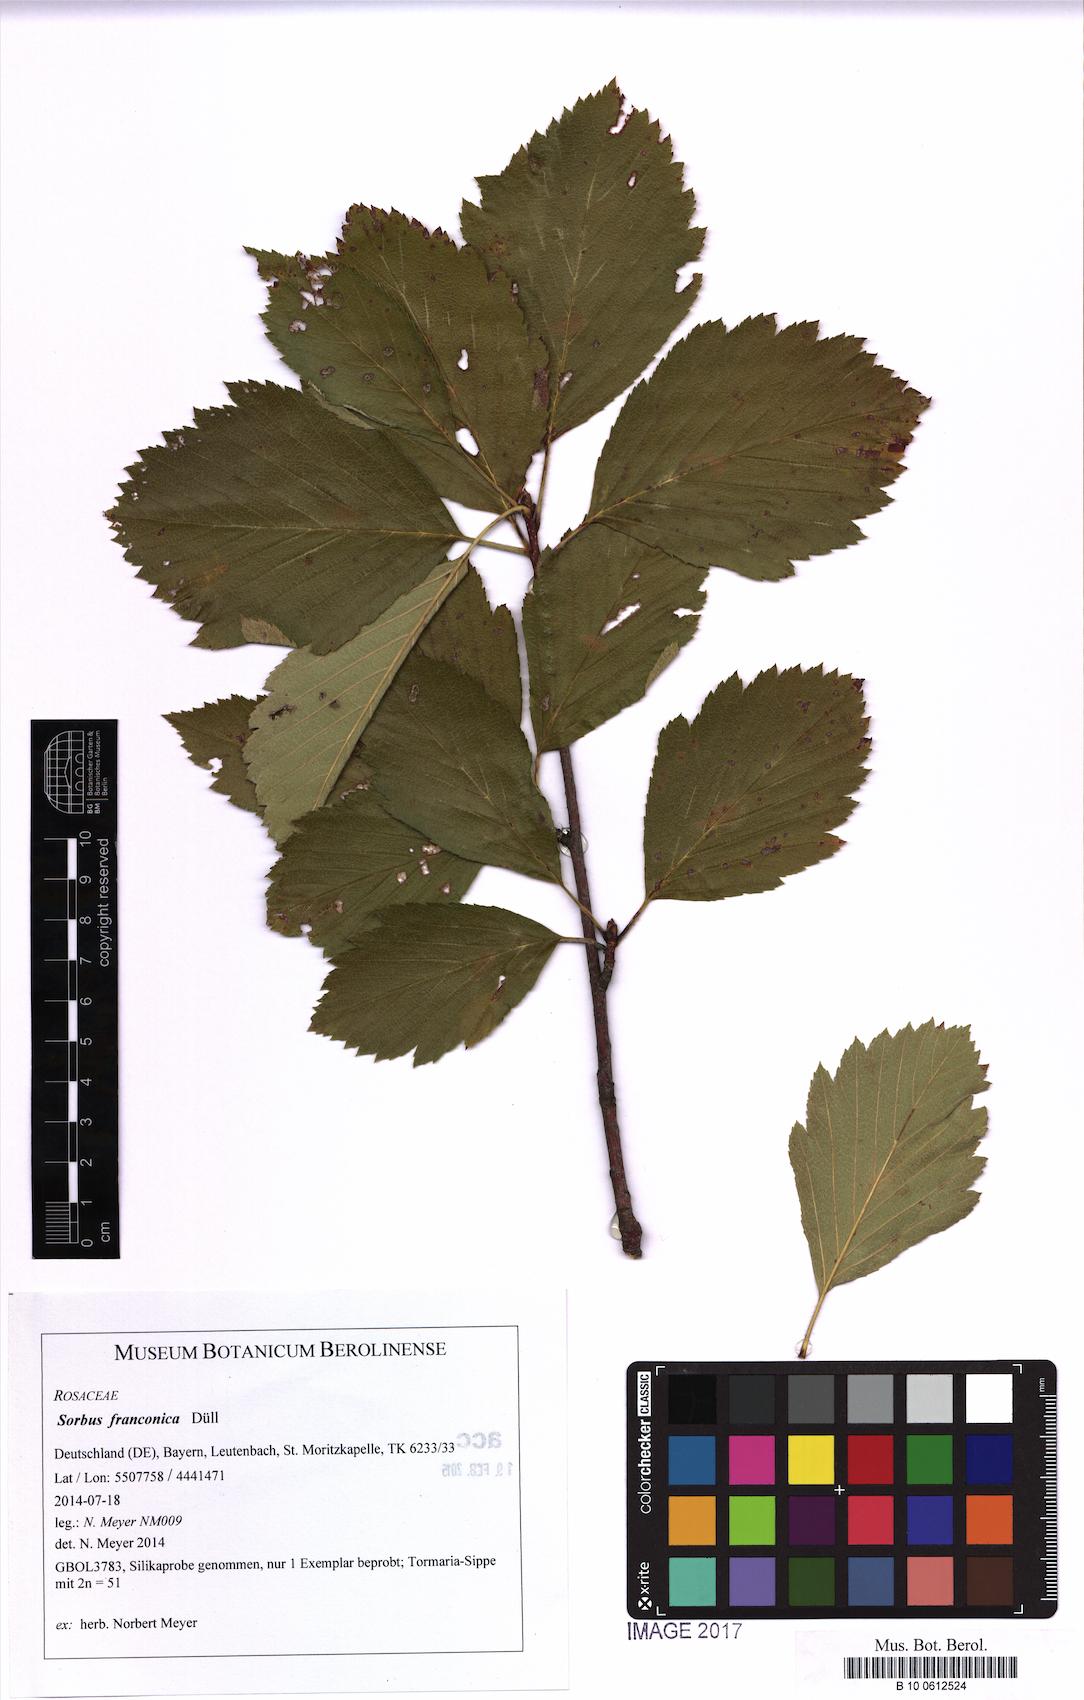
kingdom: Plantae
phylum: Tracheophyta
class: Magnoliopsida
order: Rosales
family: Rosaceae
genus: Karpatiosorbus
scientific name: Karpatiosorbus franconica
